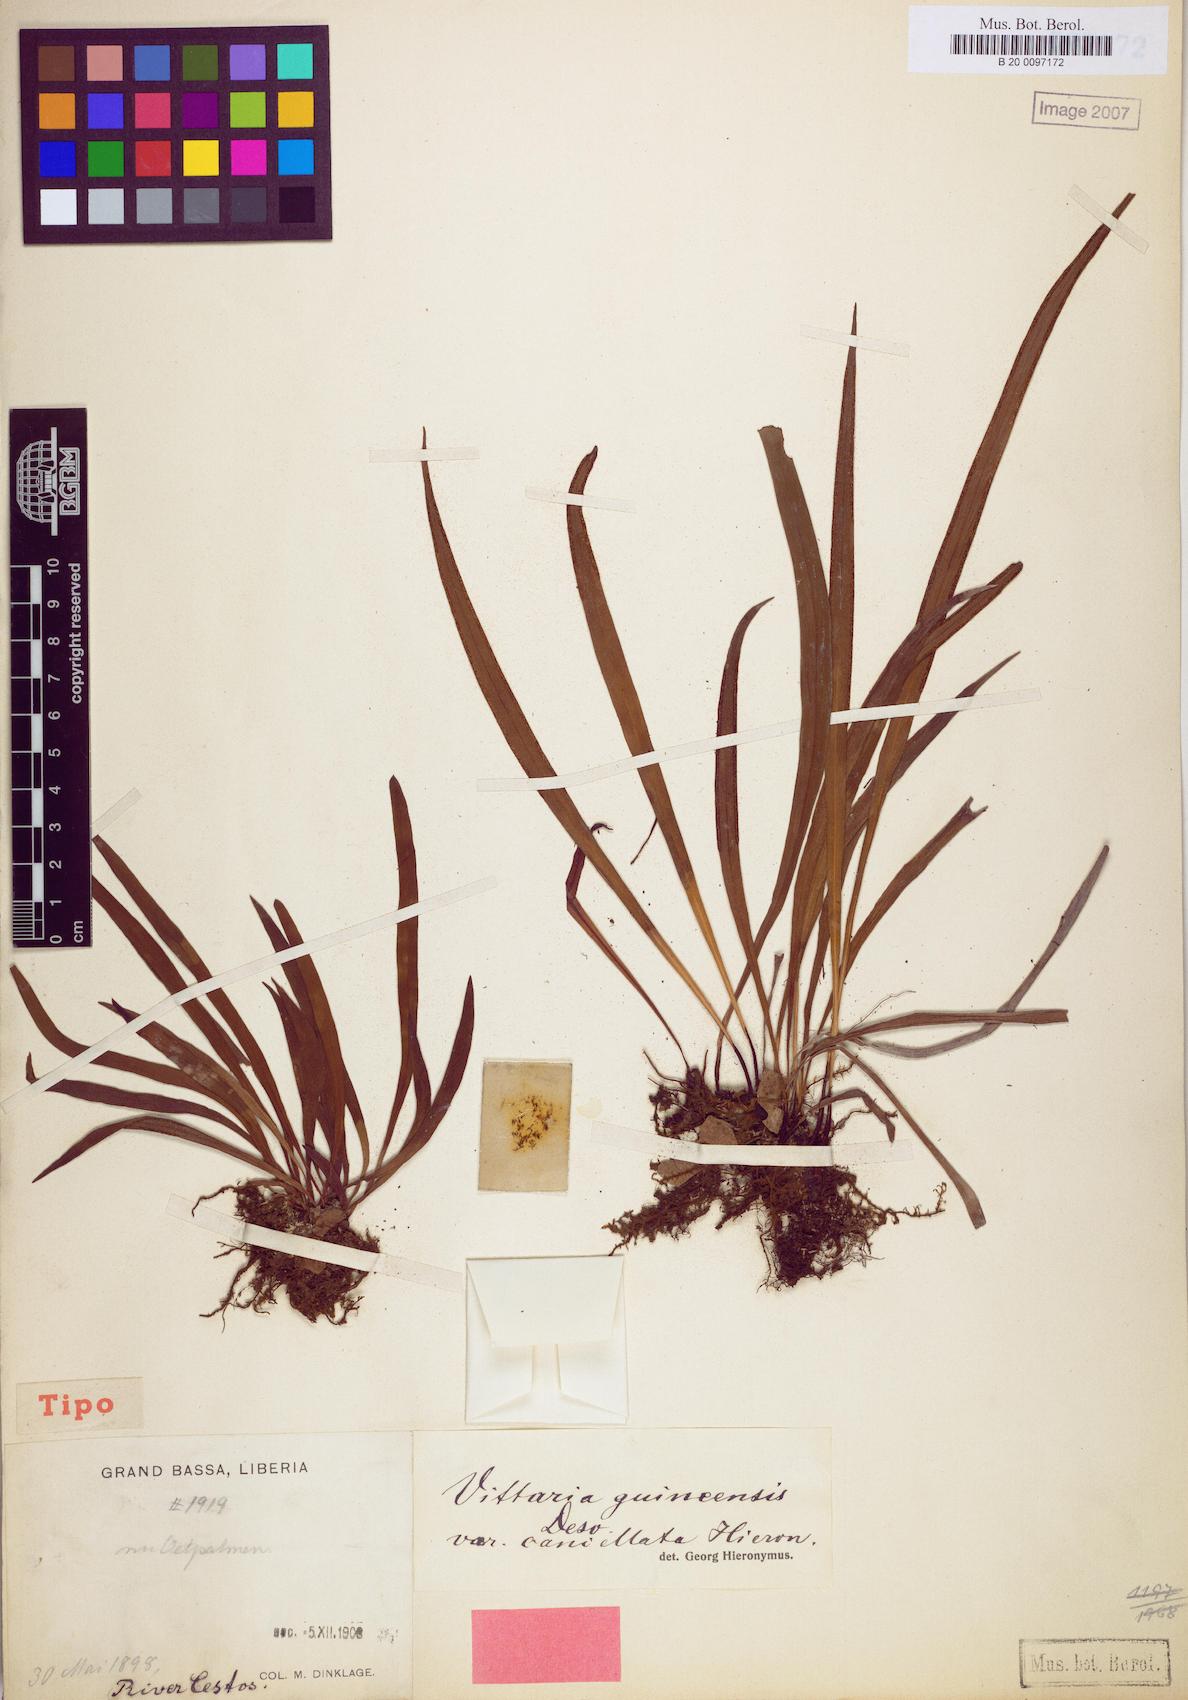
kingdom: Plantae
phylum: Tracheophyta
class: Polypodiopsida
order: Polypodiales
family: Pteridaceae
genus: Haplopteris
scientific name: Haplopteris guineensis
